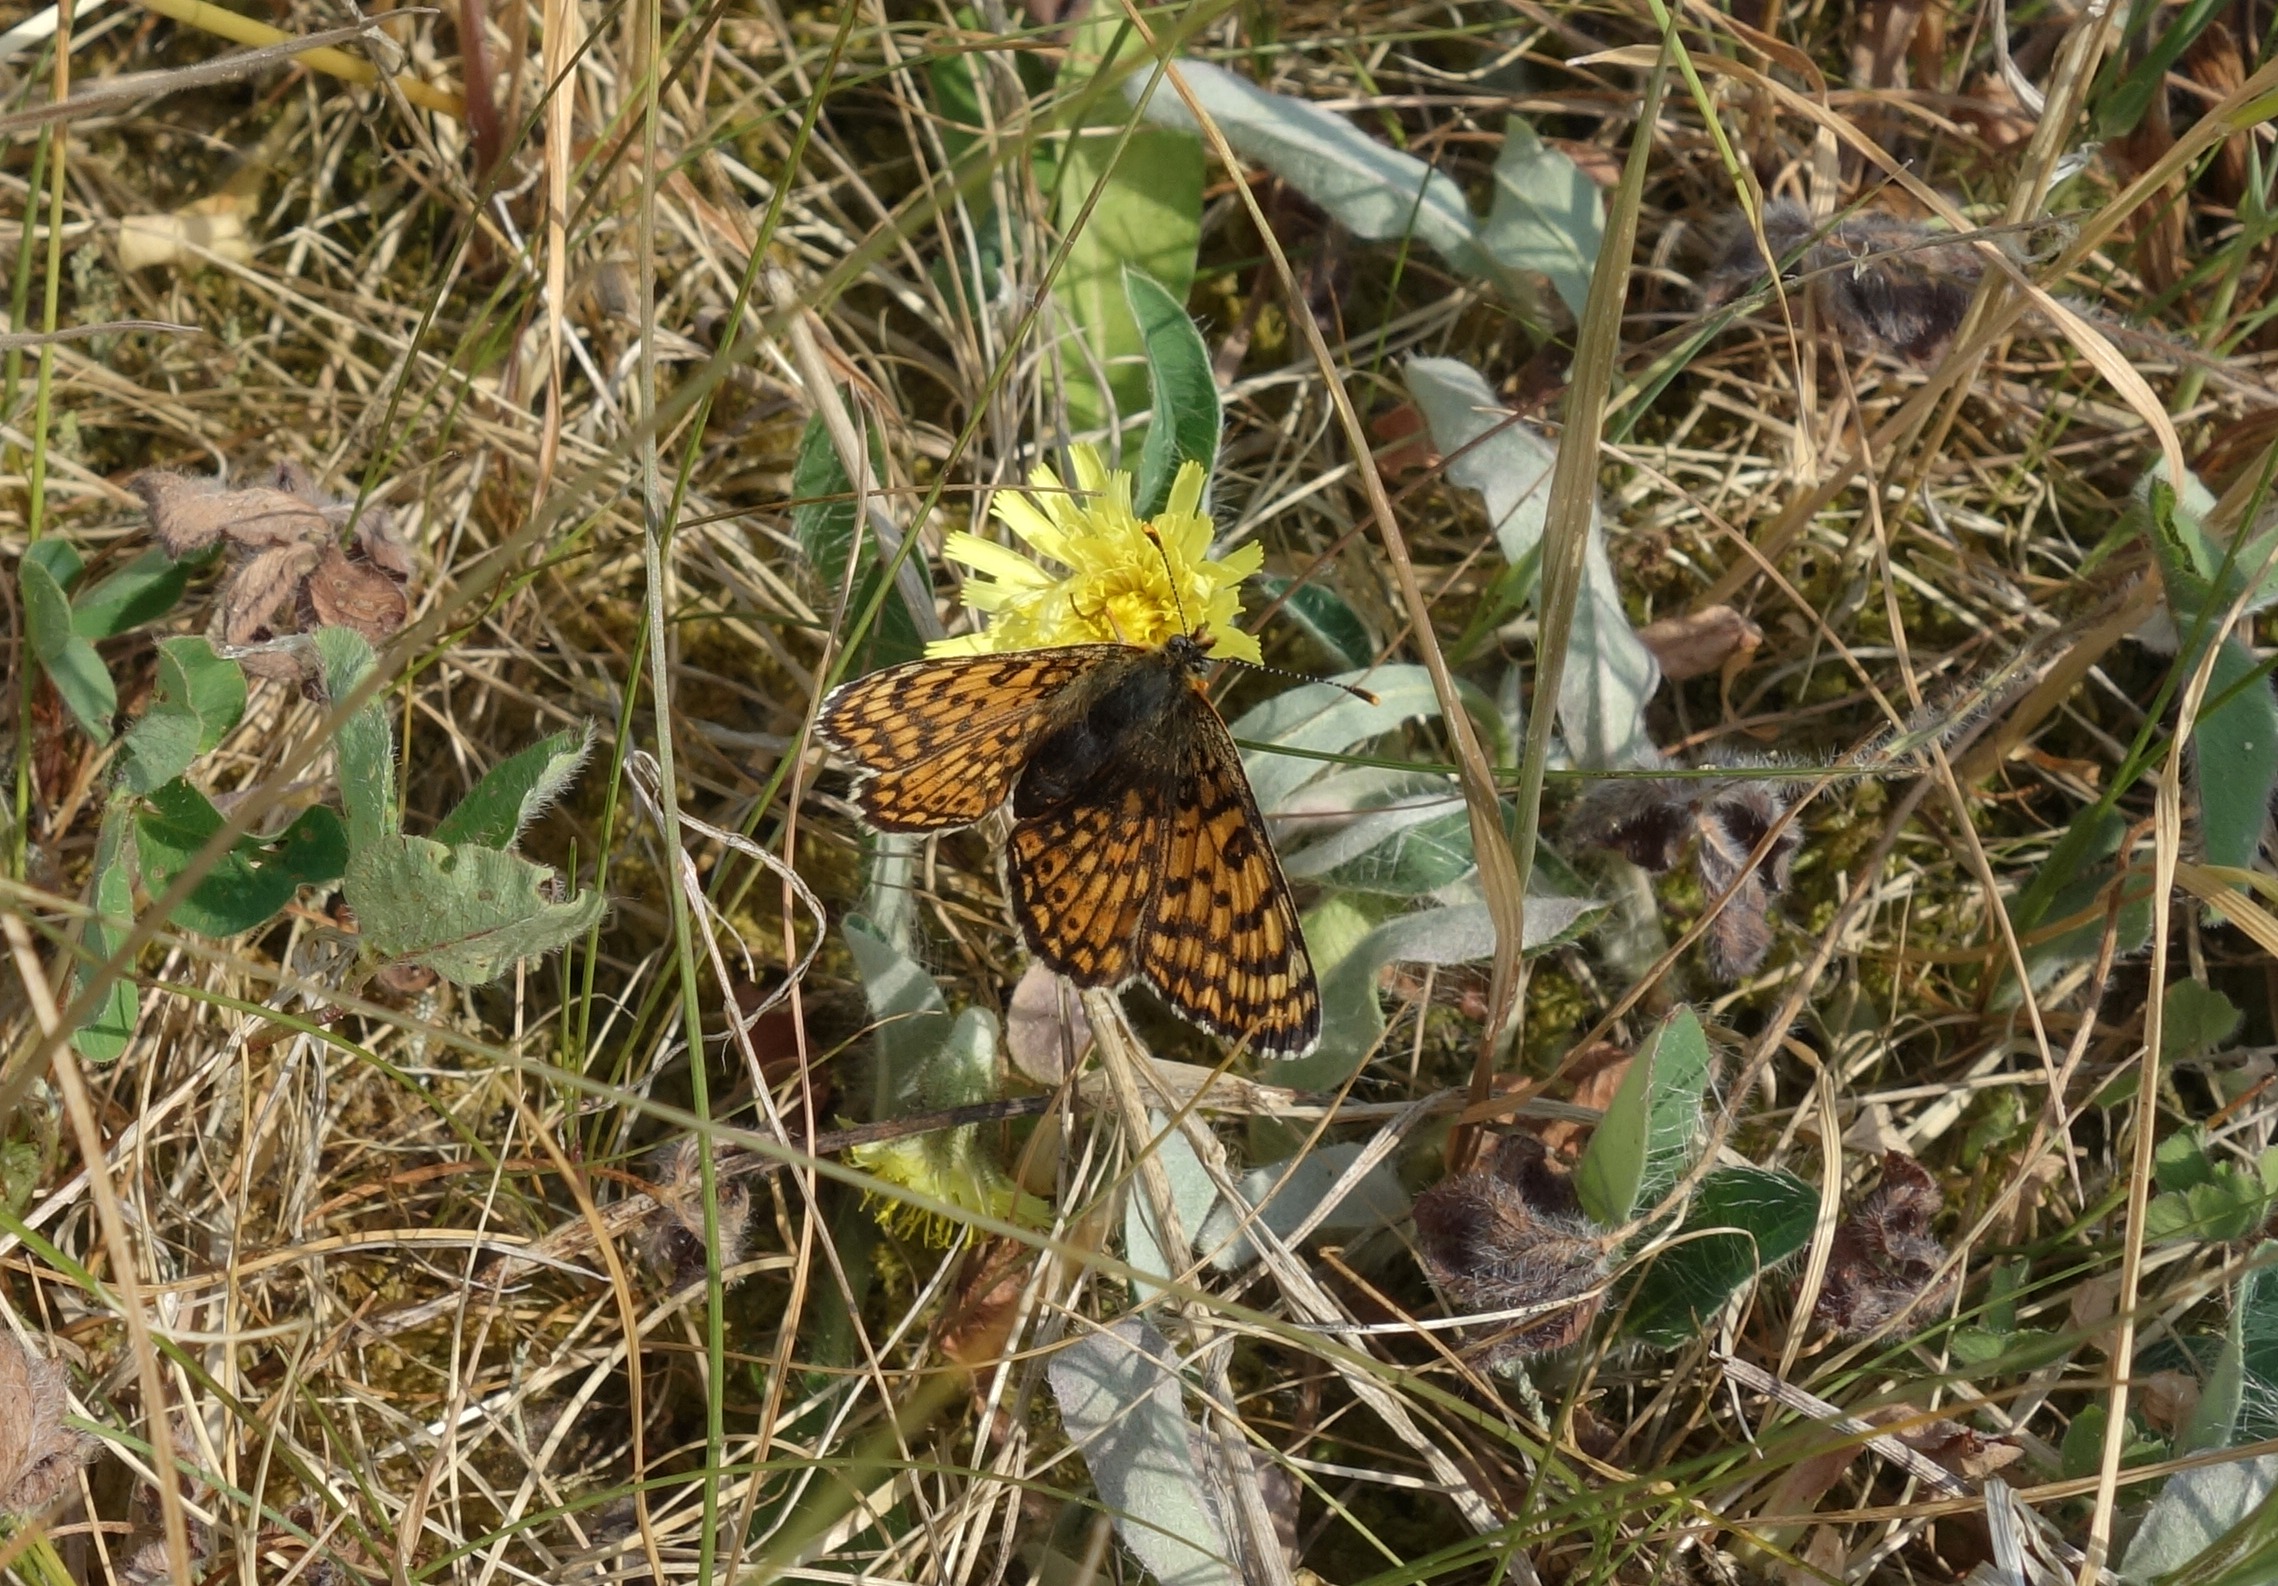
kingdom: Animalia
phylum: Arthropoda
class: Insecta
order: Lepidoptera
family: Nymphalidae
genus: Melitaea
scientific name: Melitaea cinxia
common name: Okkergul pletvinge
